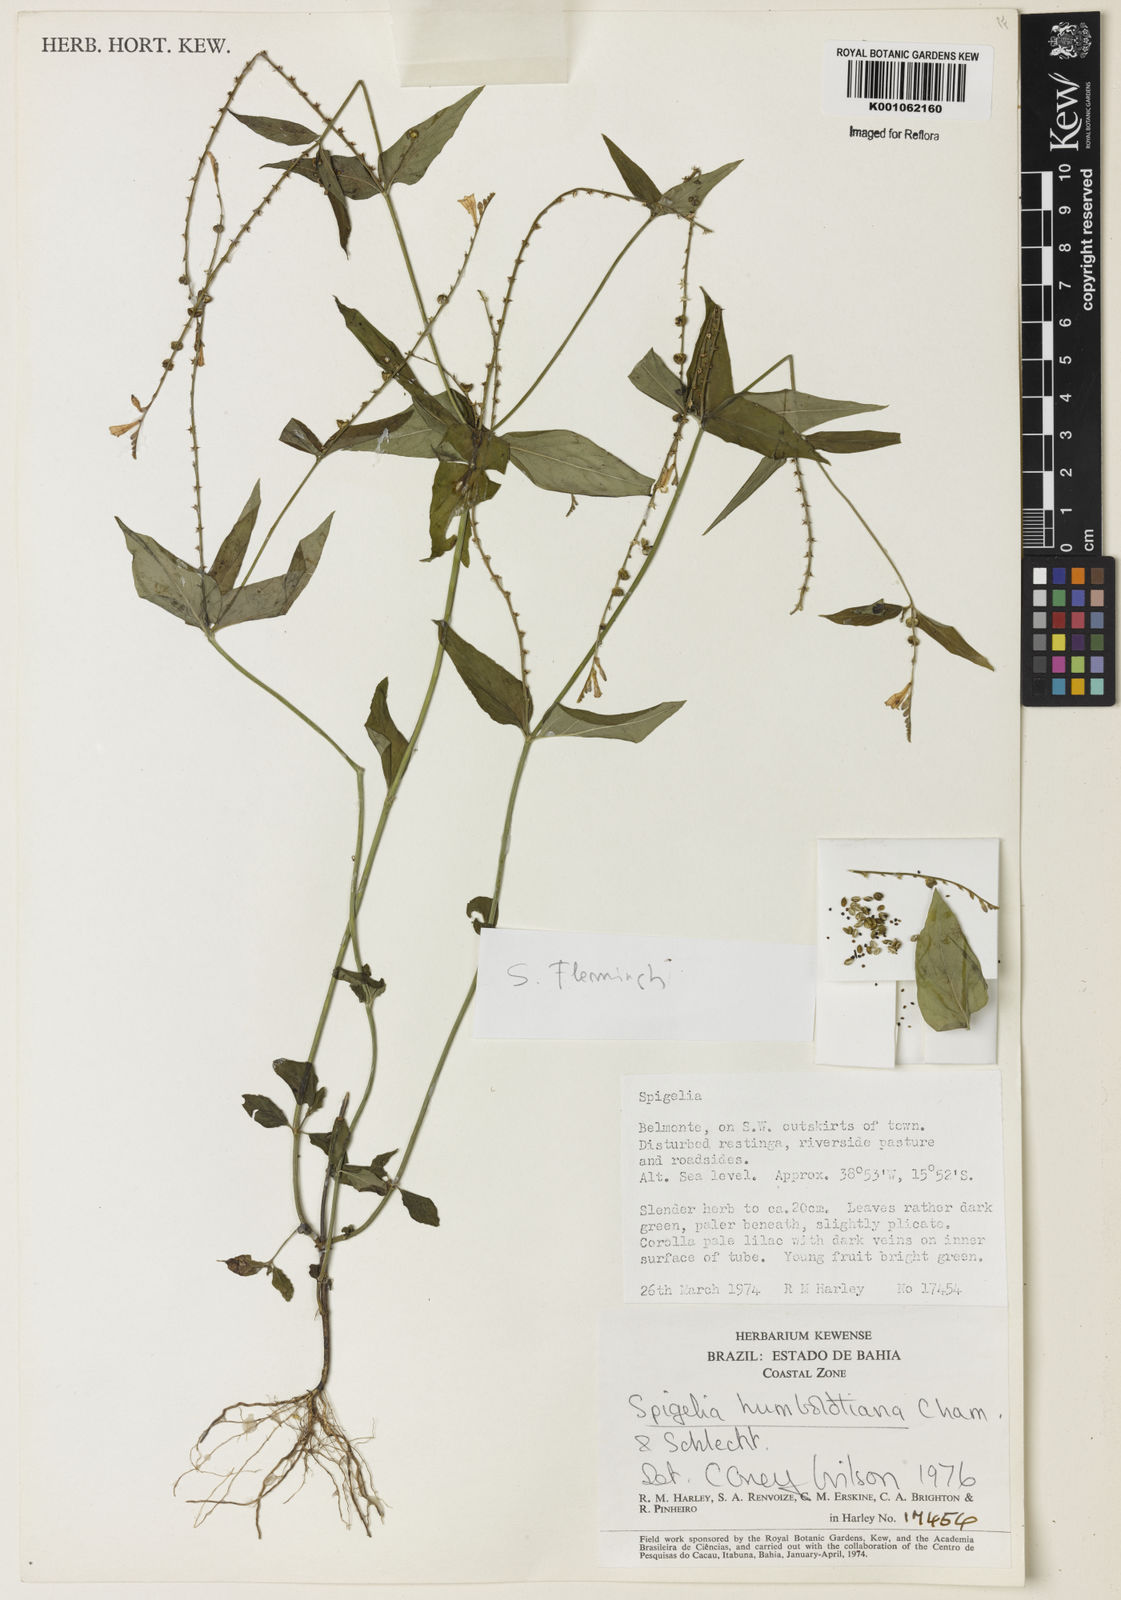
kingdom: Plantae
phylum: Tracheophyta
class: Magnoliopsida
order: Gentianales
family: Loganiaceae
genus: Spigelia
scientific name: Spigelia schlechtendaliana
